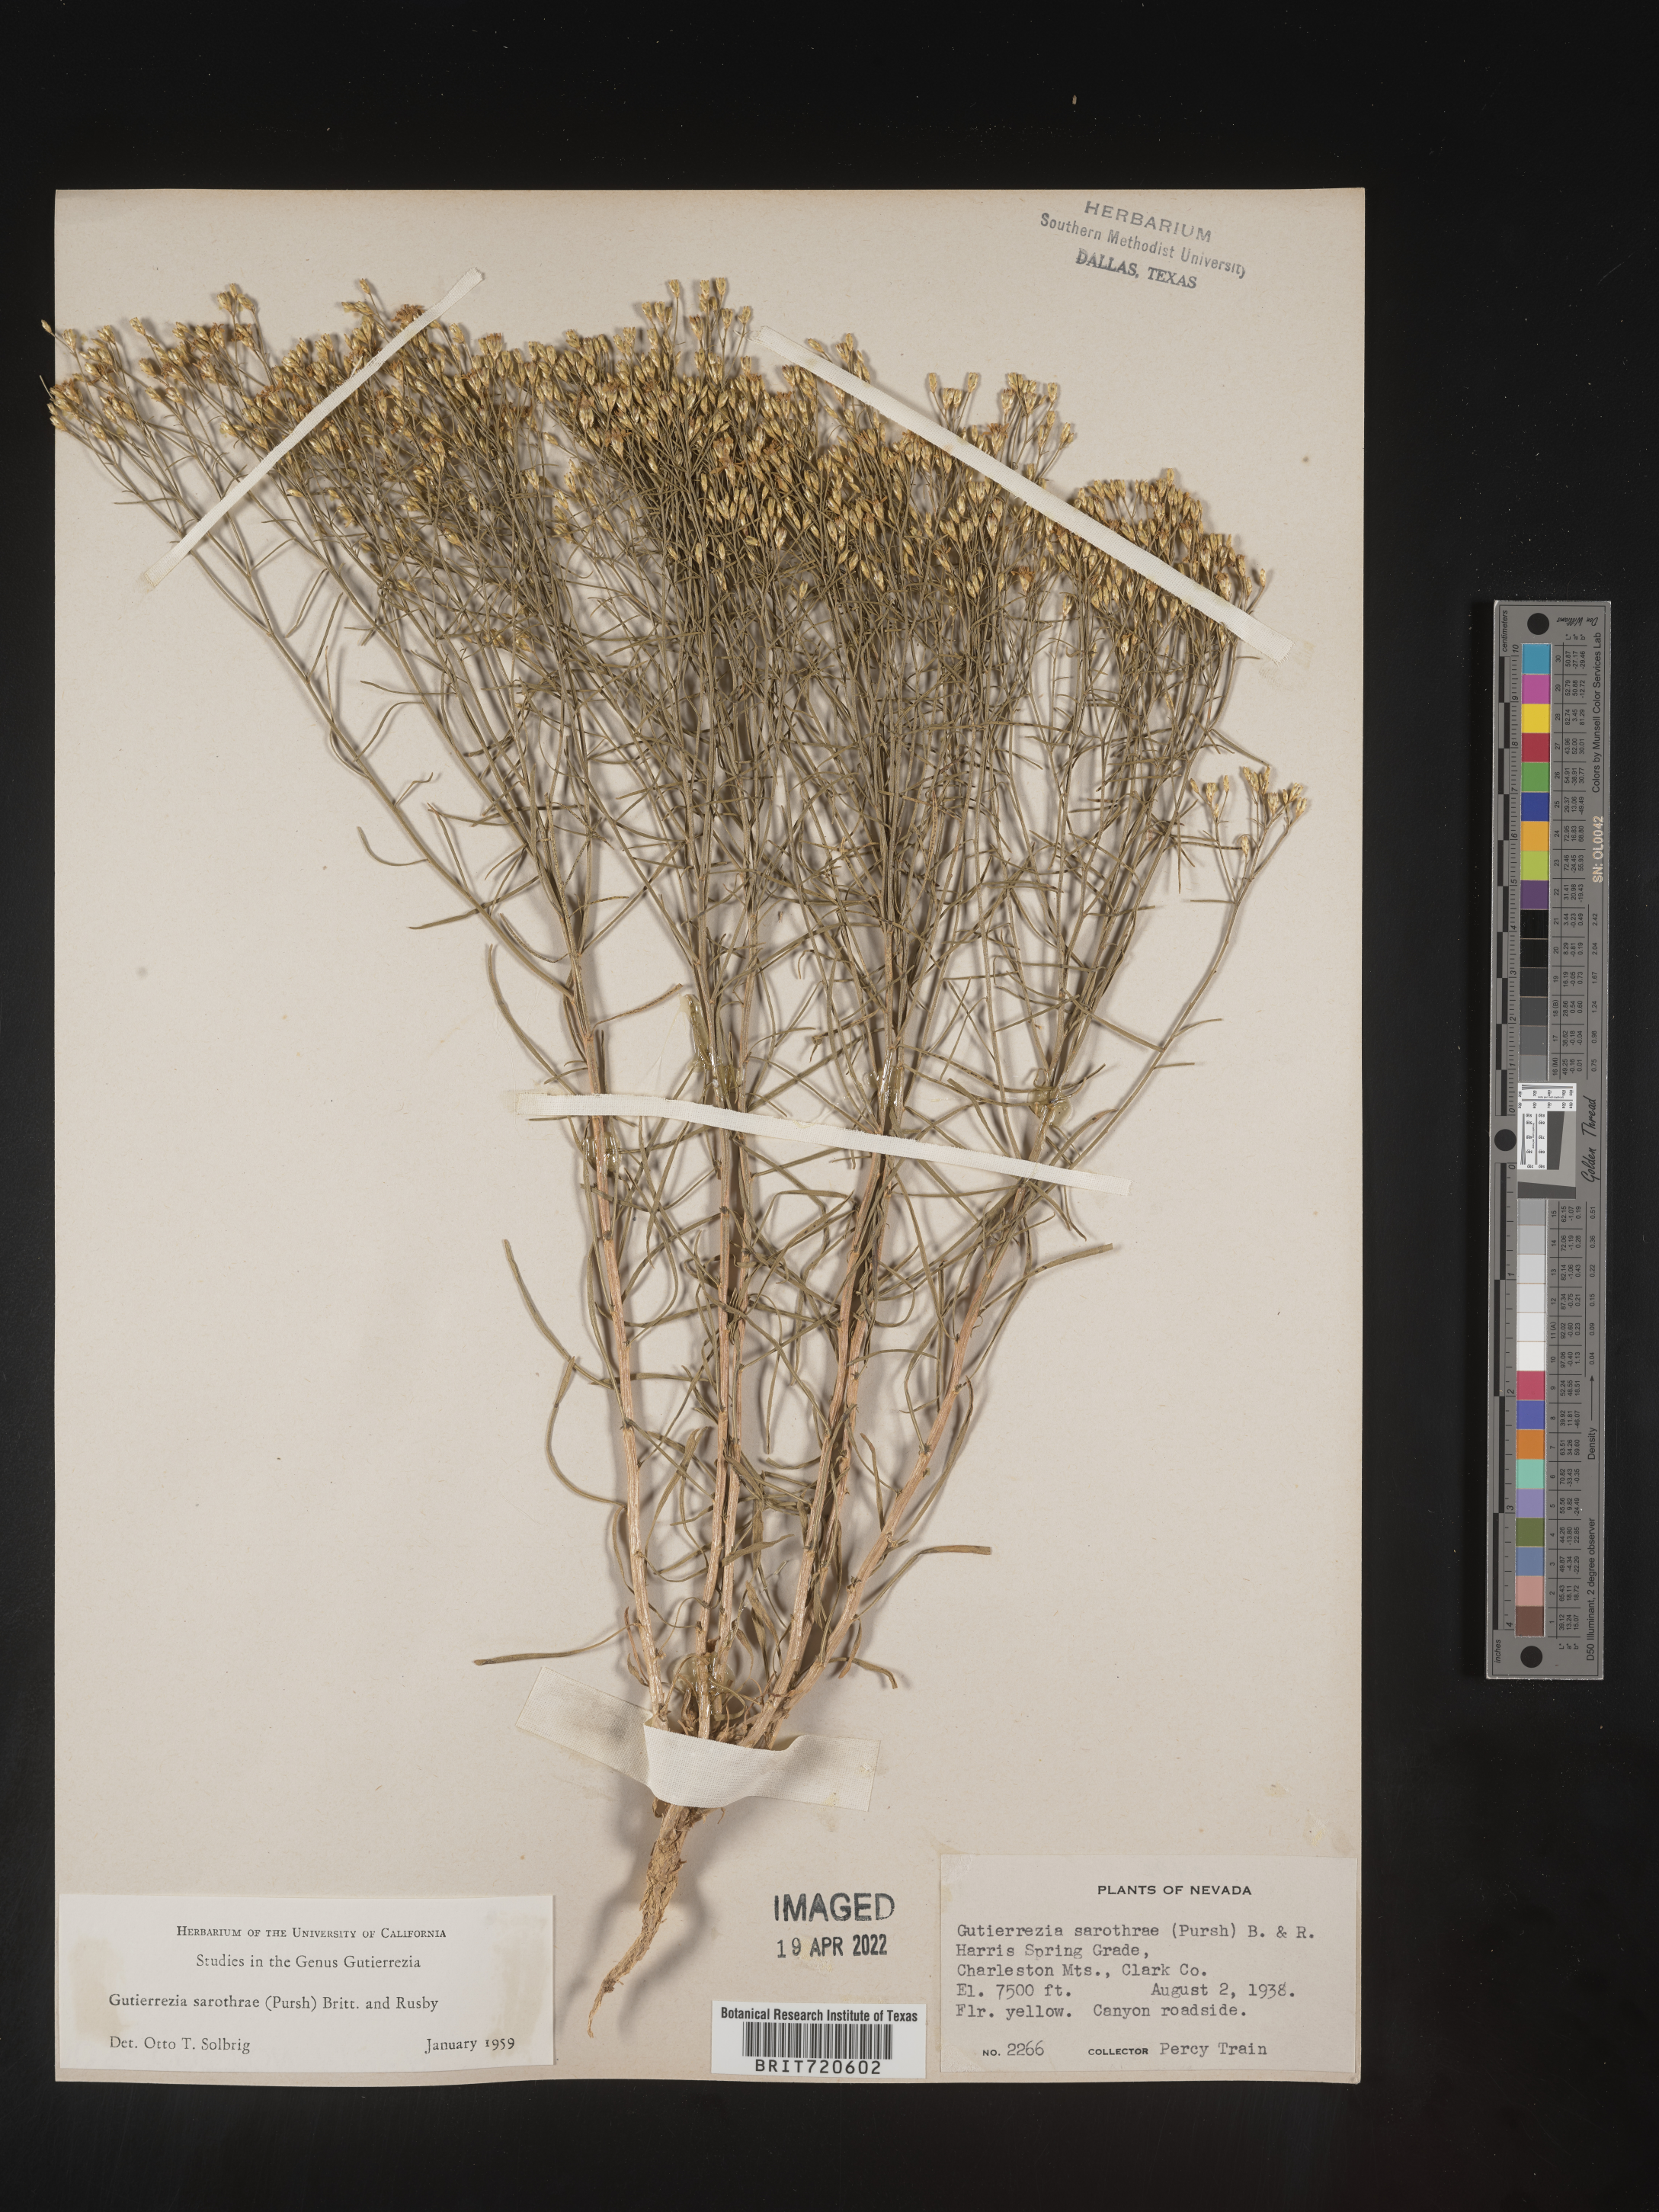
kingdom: Plantae
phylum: Tracheophyta
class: Magnoliopsida
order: Asterales
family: Asteraceae
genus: Gutierrezia
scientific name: Gutierrezia sarothrae
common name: Broom snakeweed
